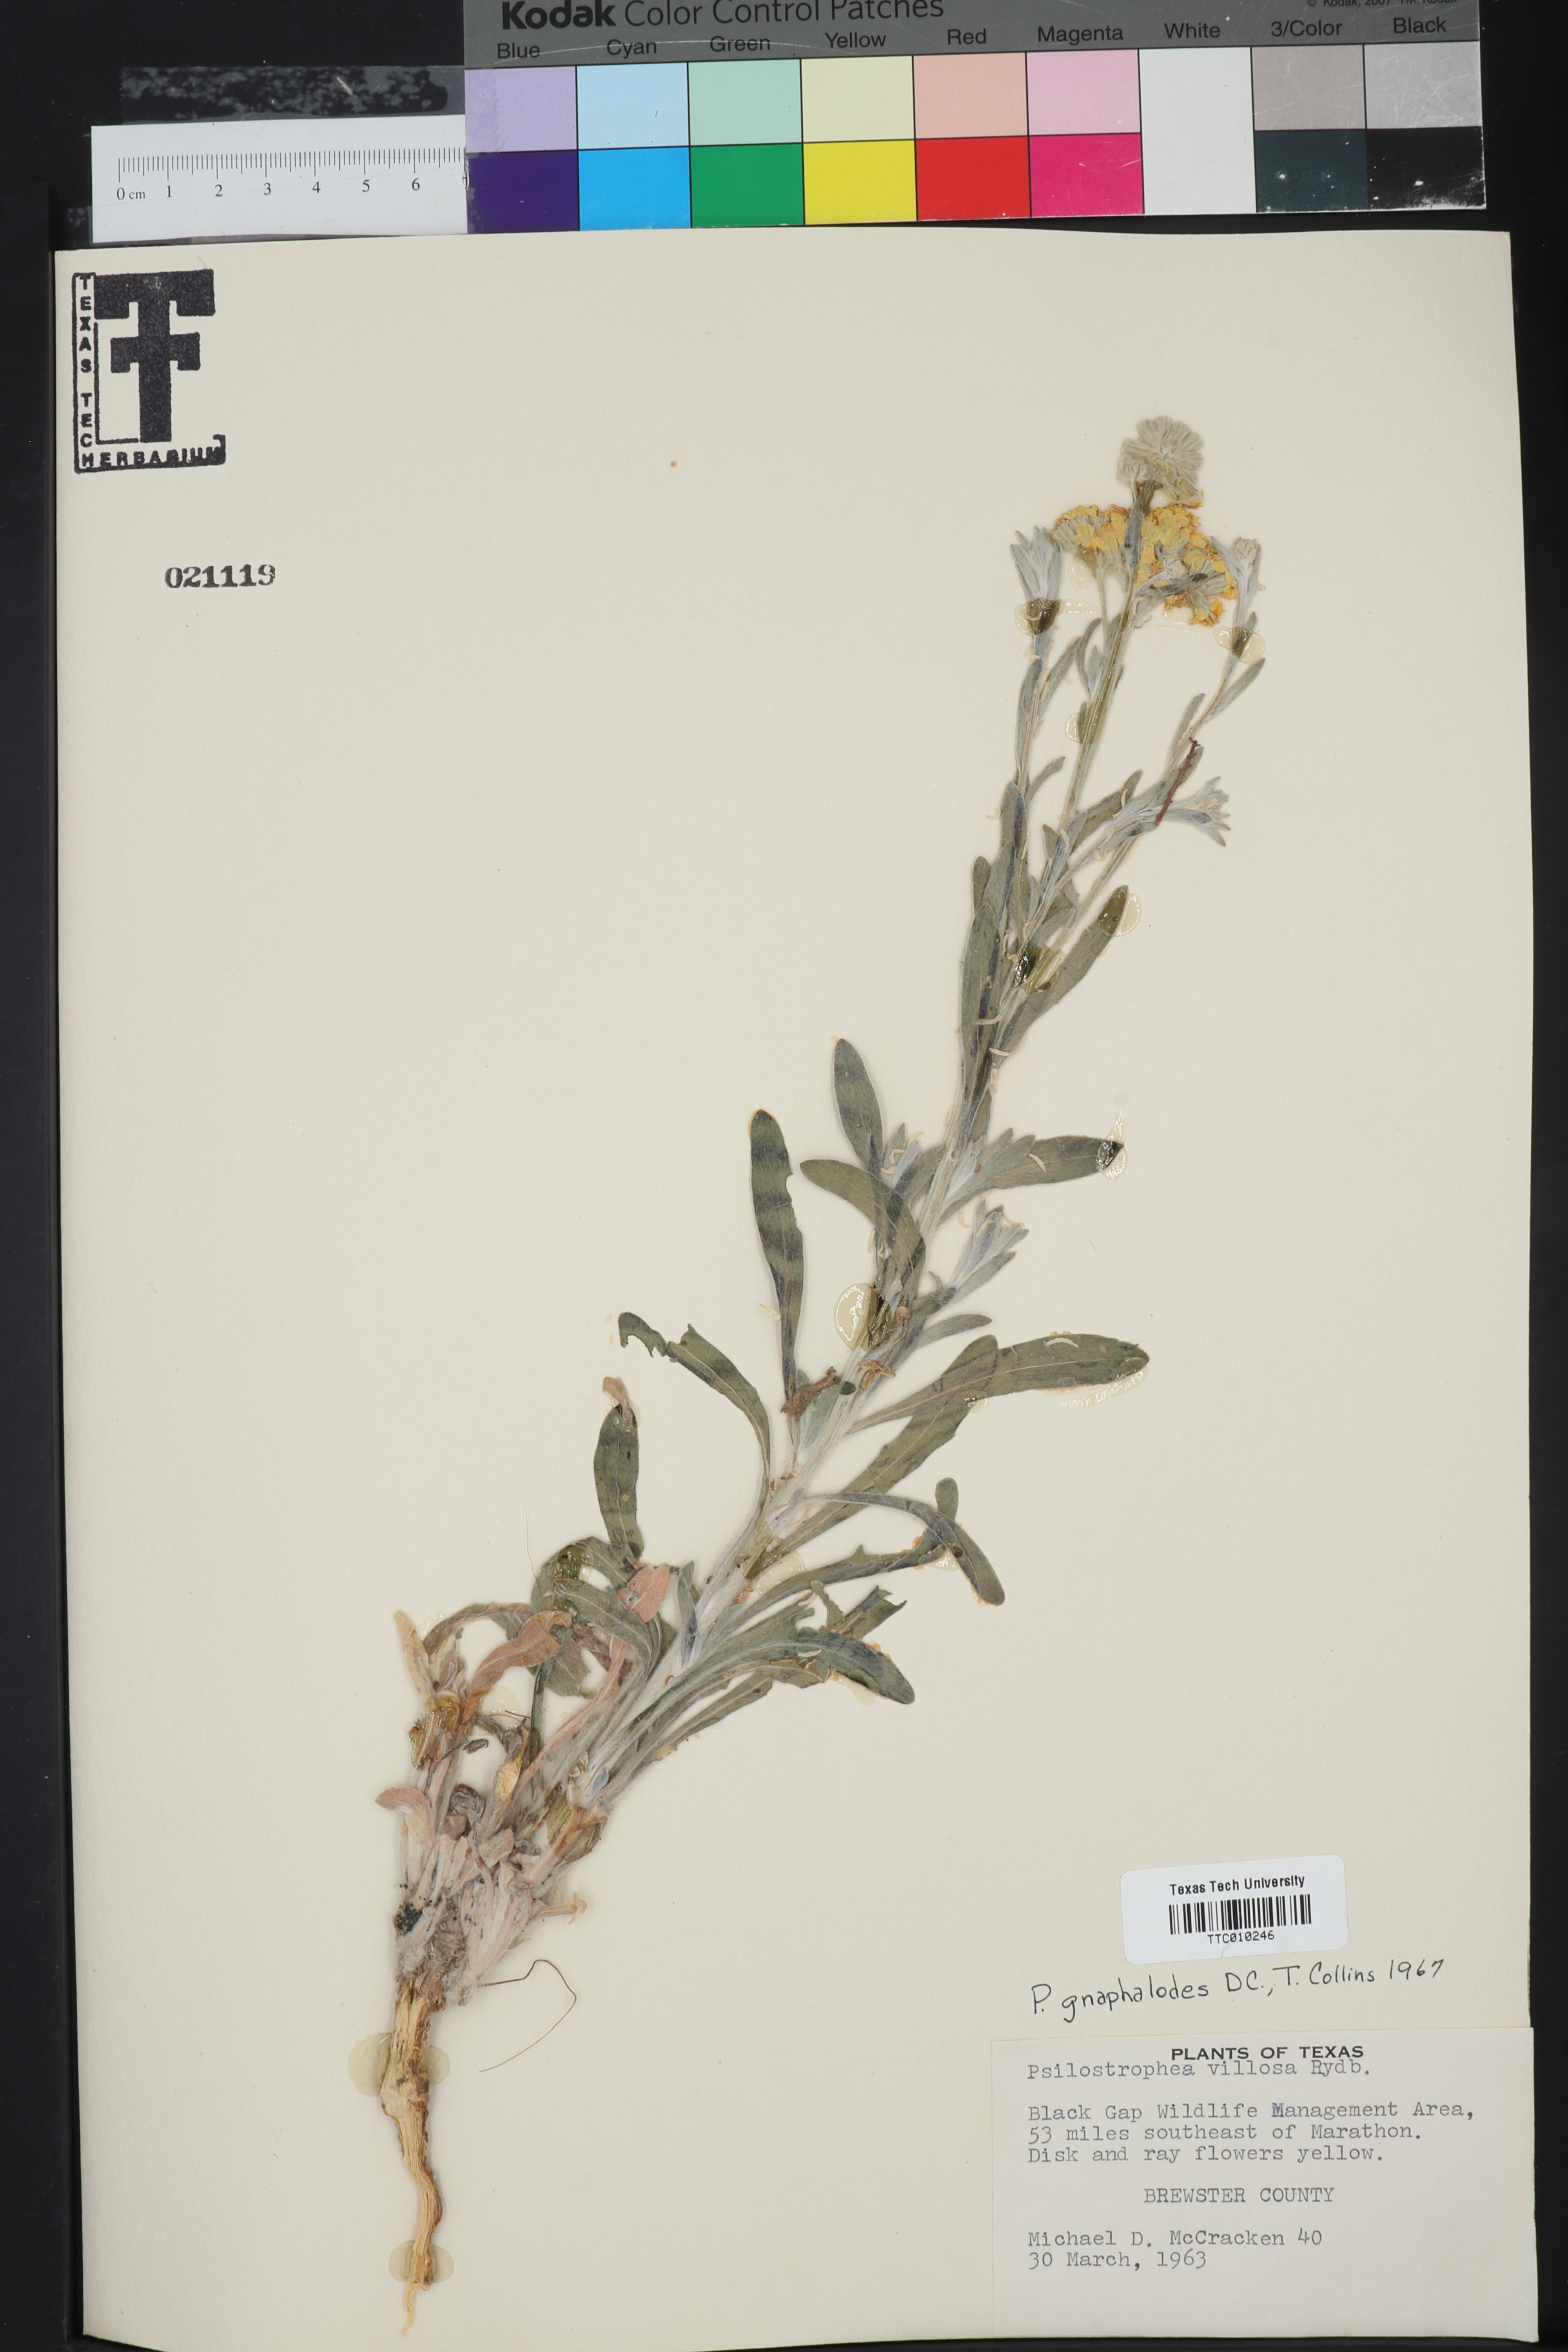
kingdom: Plantae
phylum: Tracheophyta
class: Magnoliopsida
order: Asterales
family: Asteraceae
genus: Psilostrophe
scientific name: Psilostrophe gnaphalioides
